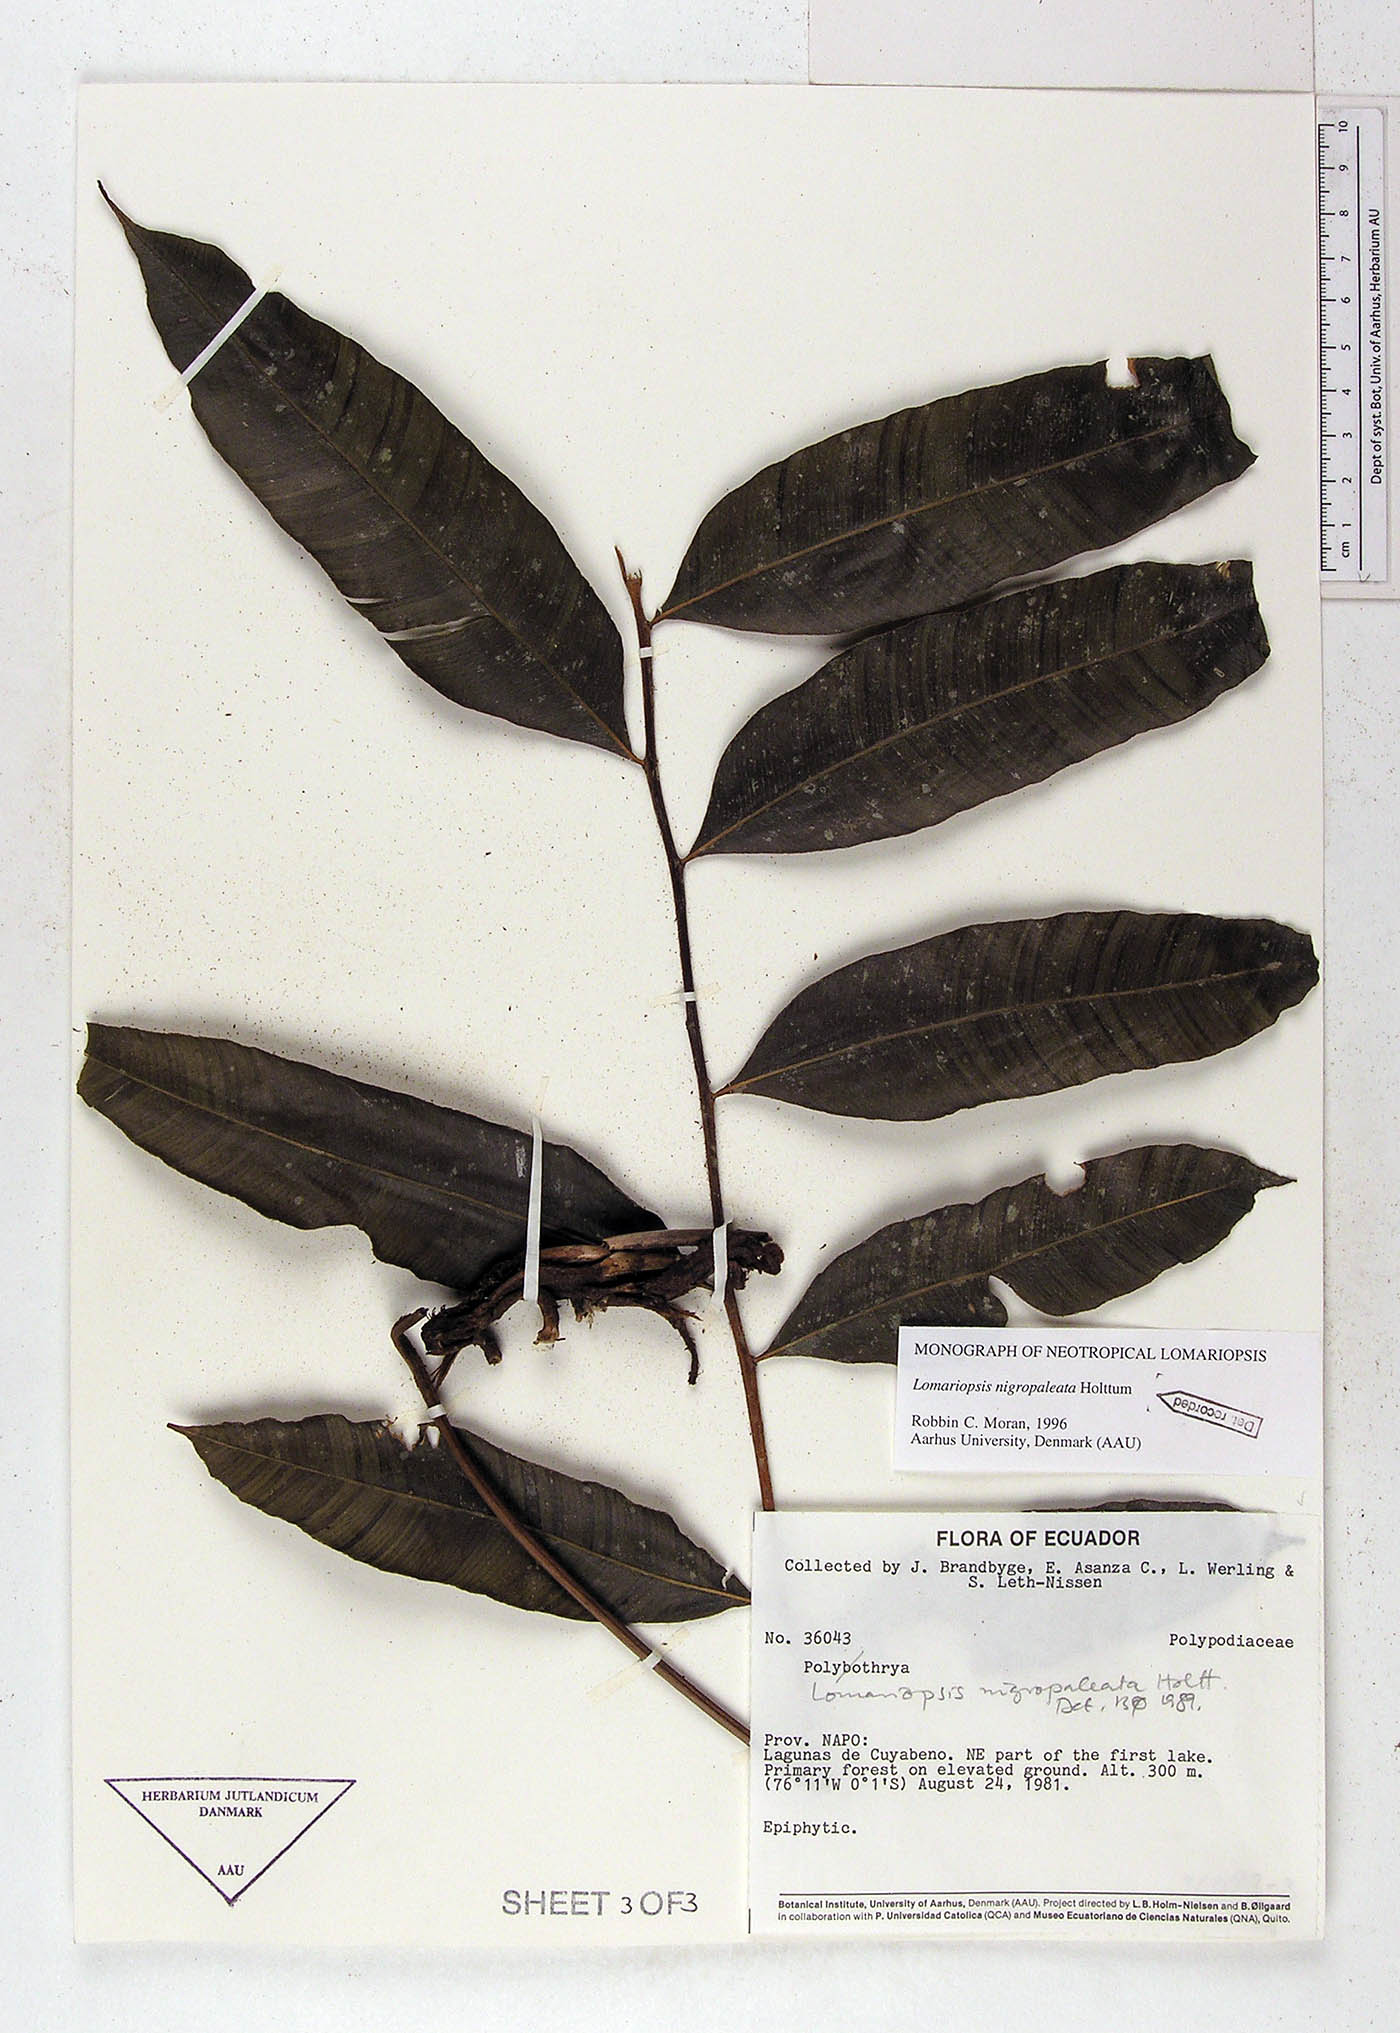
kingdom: Plantae
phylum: Tracheophyta
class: Polypodiopsida
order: Polypodiales
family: Lomariopsidaceae
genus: Lomariopsis
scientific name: Lomariopsis nigropaleata
